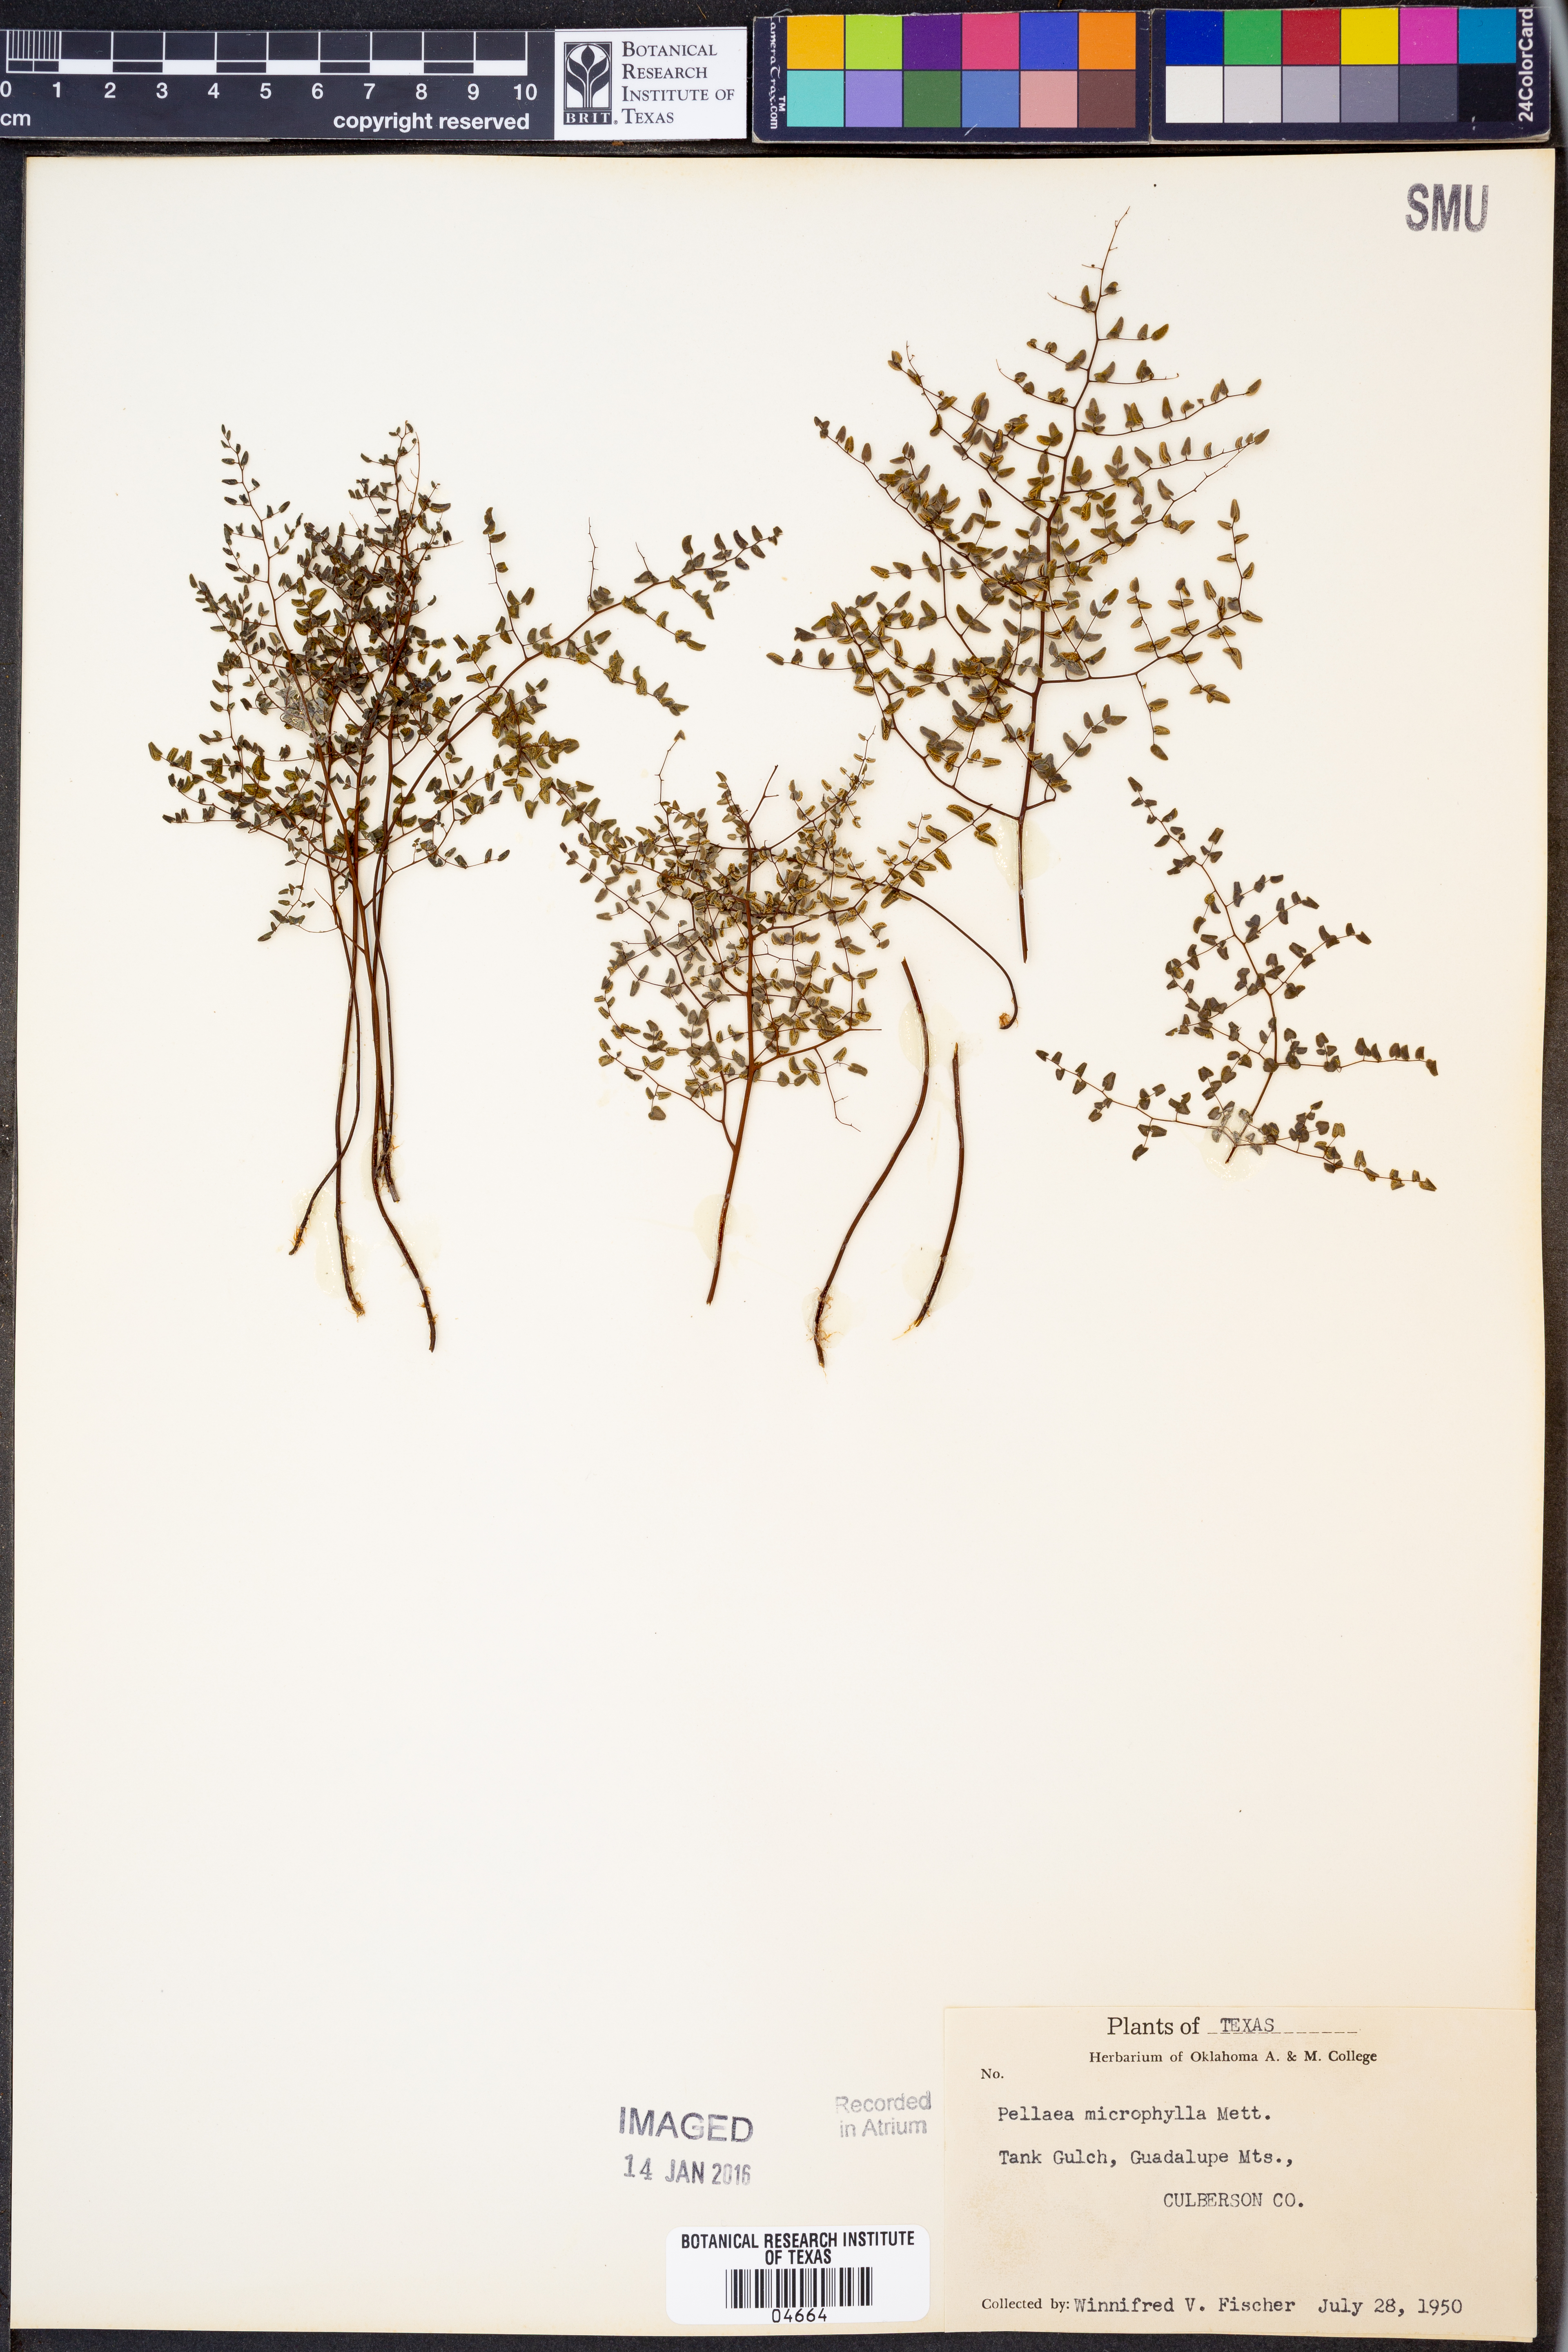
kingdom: Plantae
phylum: Tracheophyta
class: Polypodiopsida
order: Polypodiales
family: Pteridaceae
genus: Lytoneuron
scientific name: Lytoneuron microphyllum
